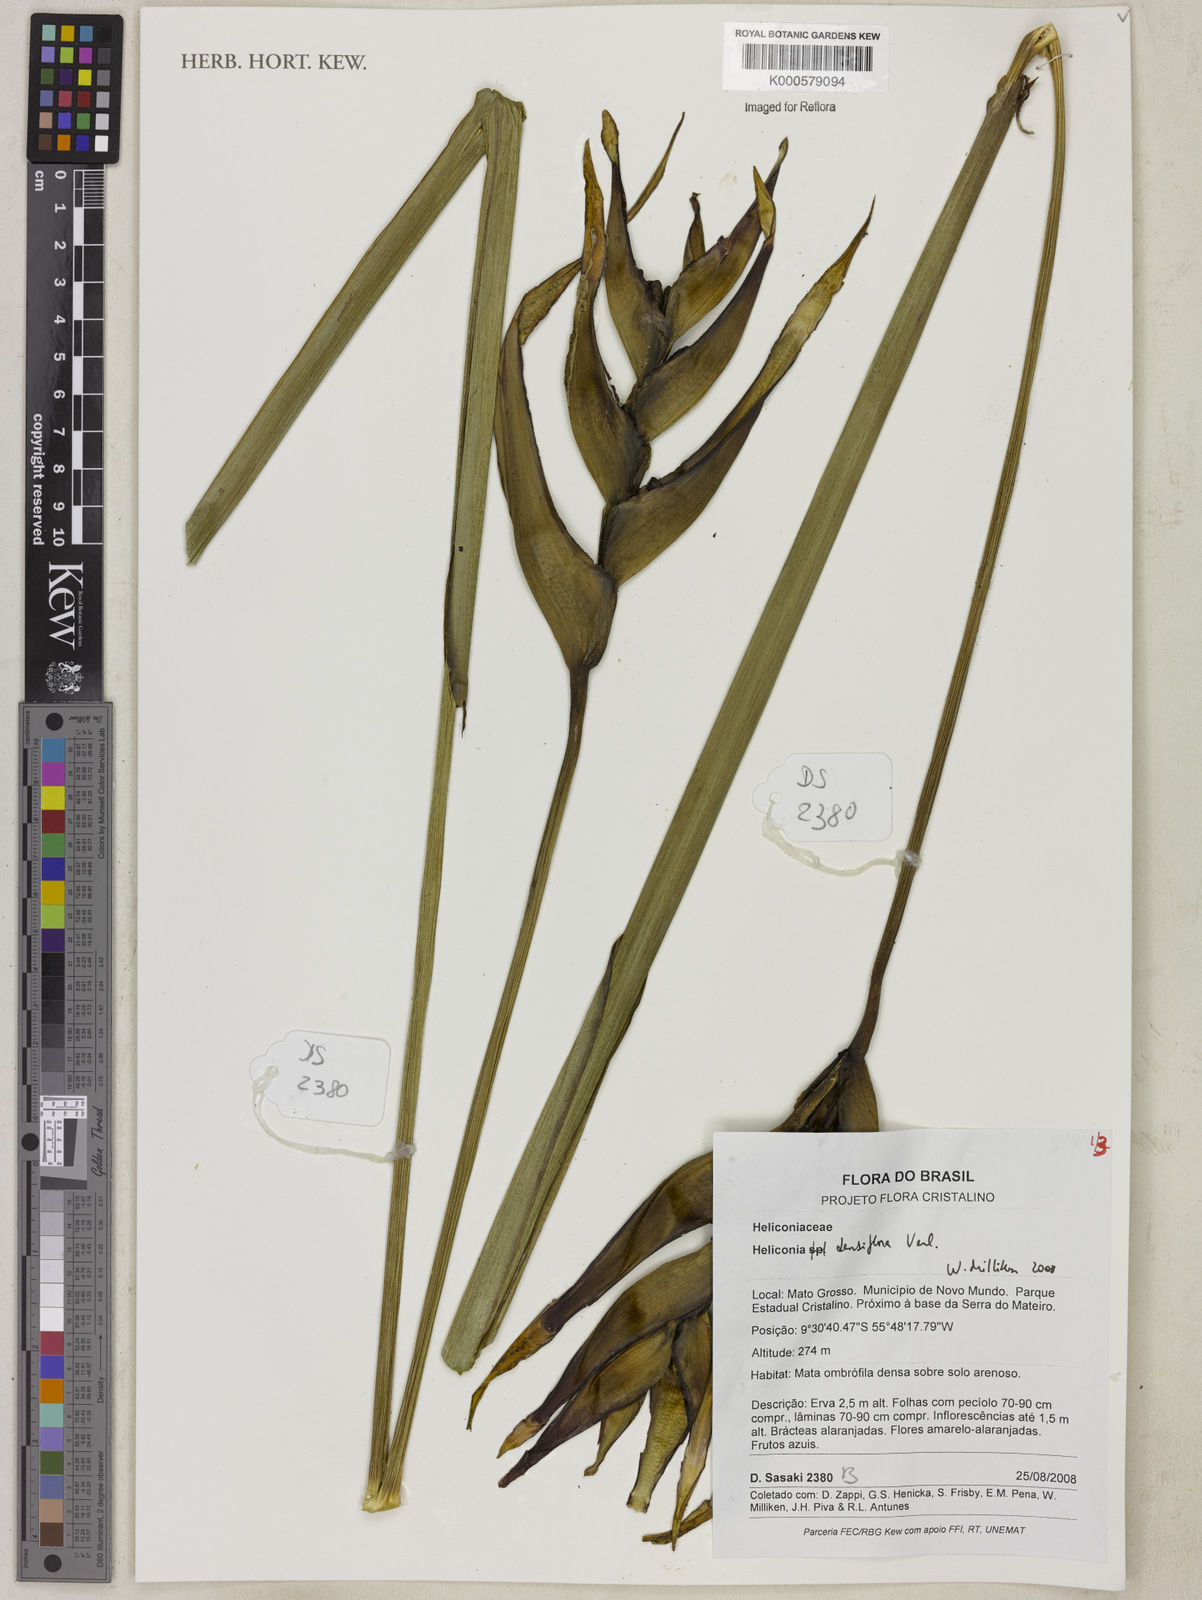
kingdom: Plantae
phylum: Tracheophyta
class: Liliopsida
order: Zingiberales
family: Heliconiaceae
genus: Heliconia
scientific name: Heliconia densiflora
